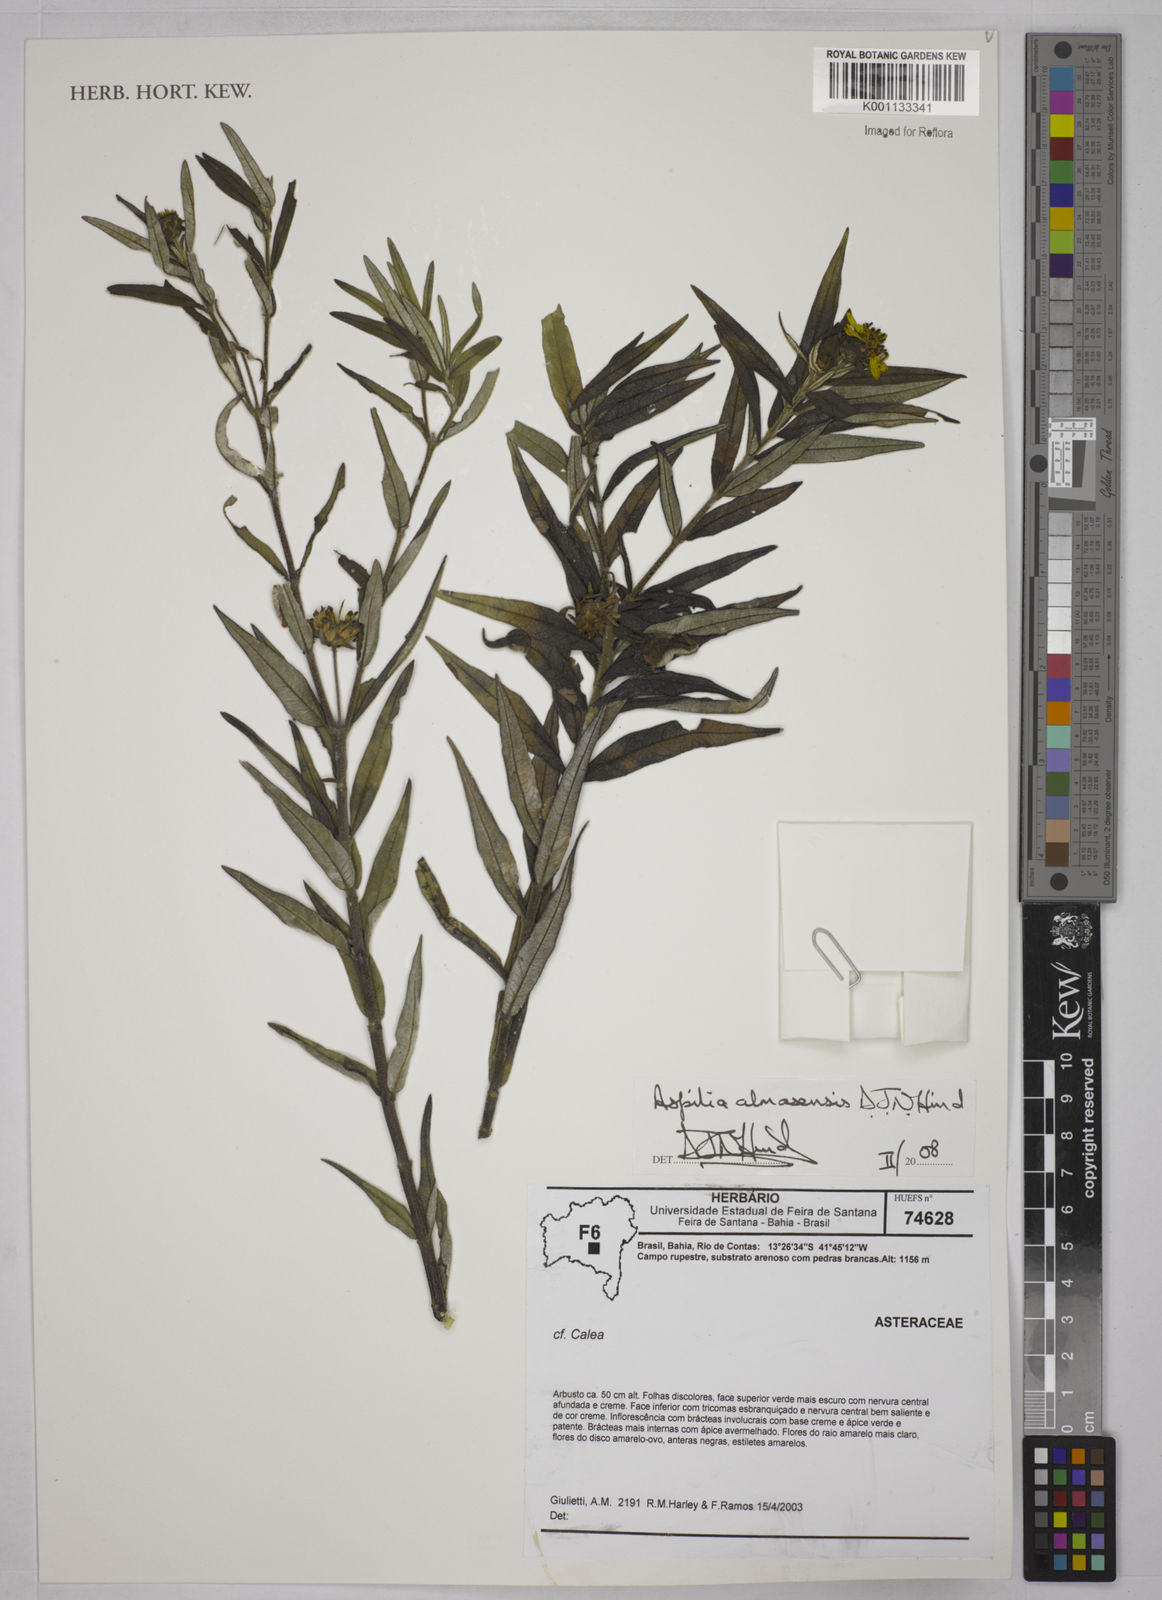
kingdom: Plantae
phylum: Tracheophyta
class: Magnoliopsida
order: Asterales
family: Asteraceae
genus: Aspilia
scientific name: Aspilia almasensis
